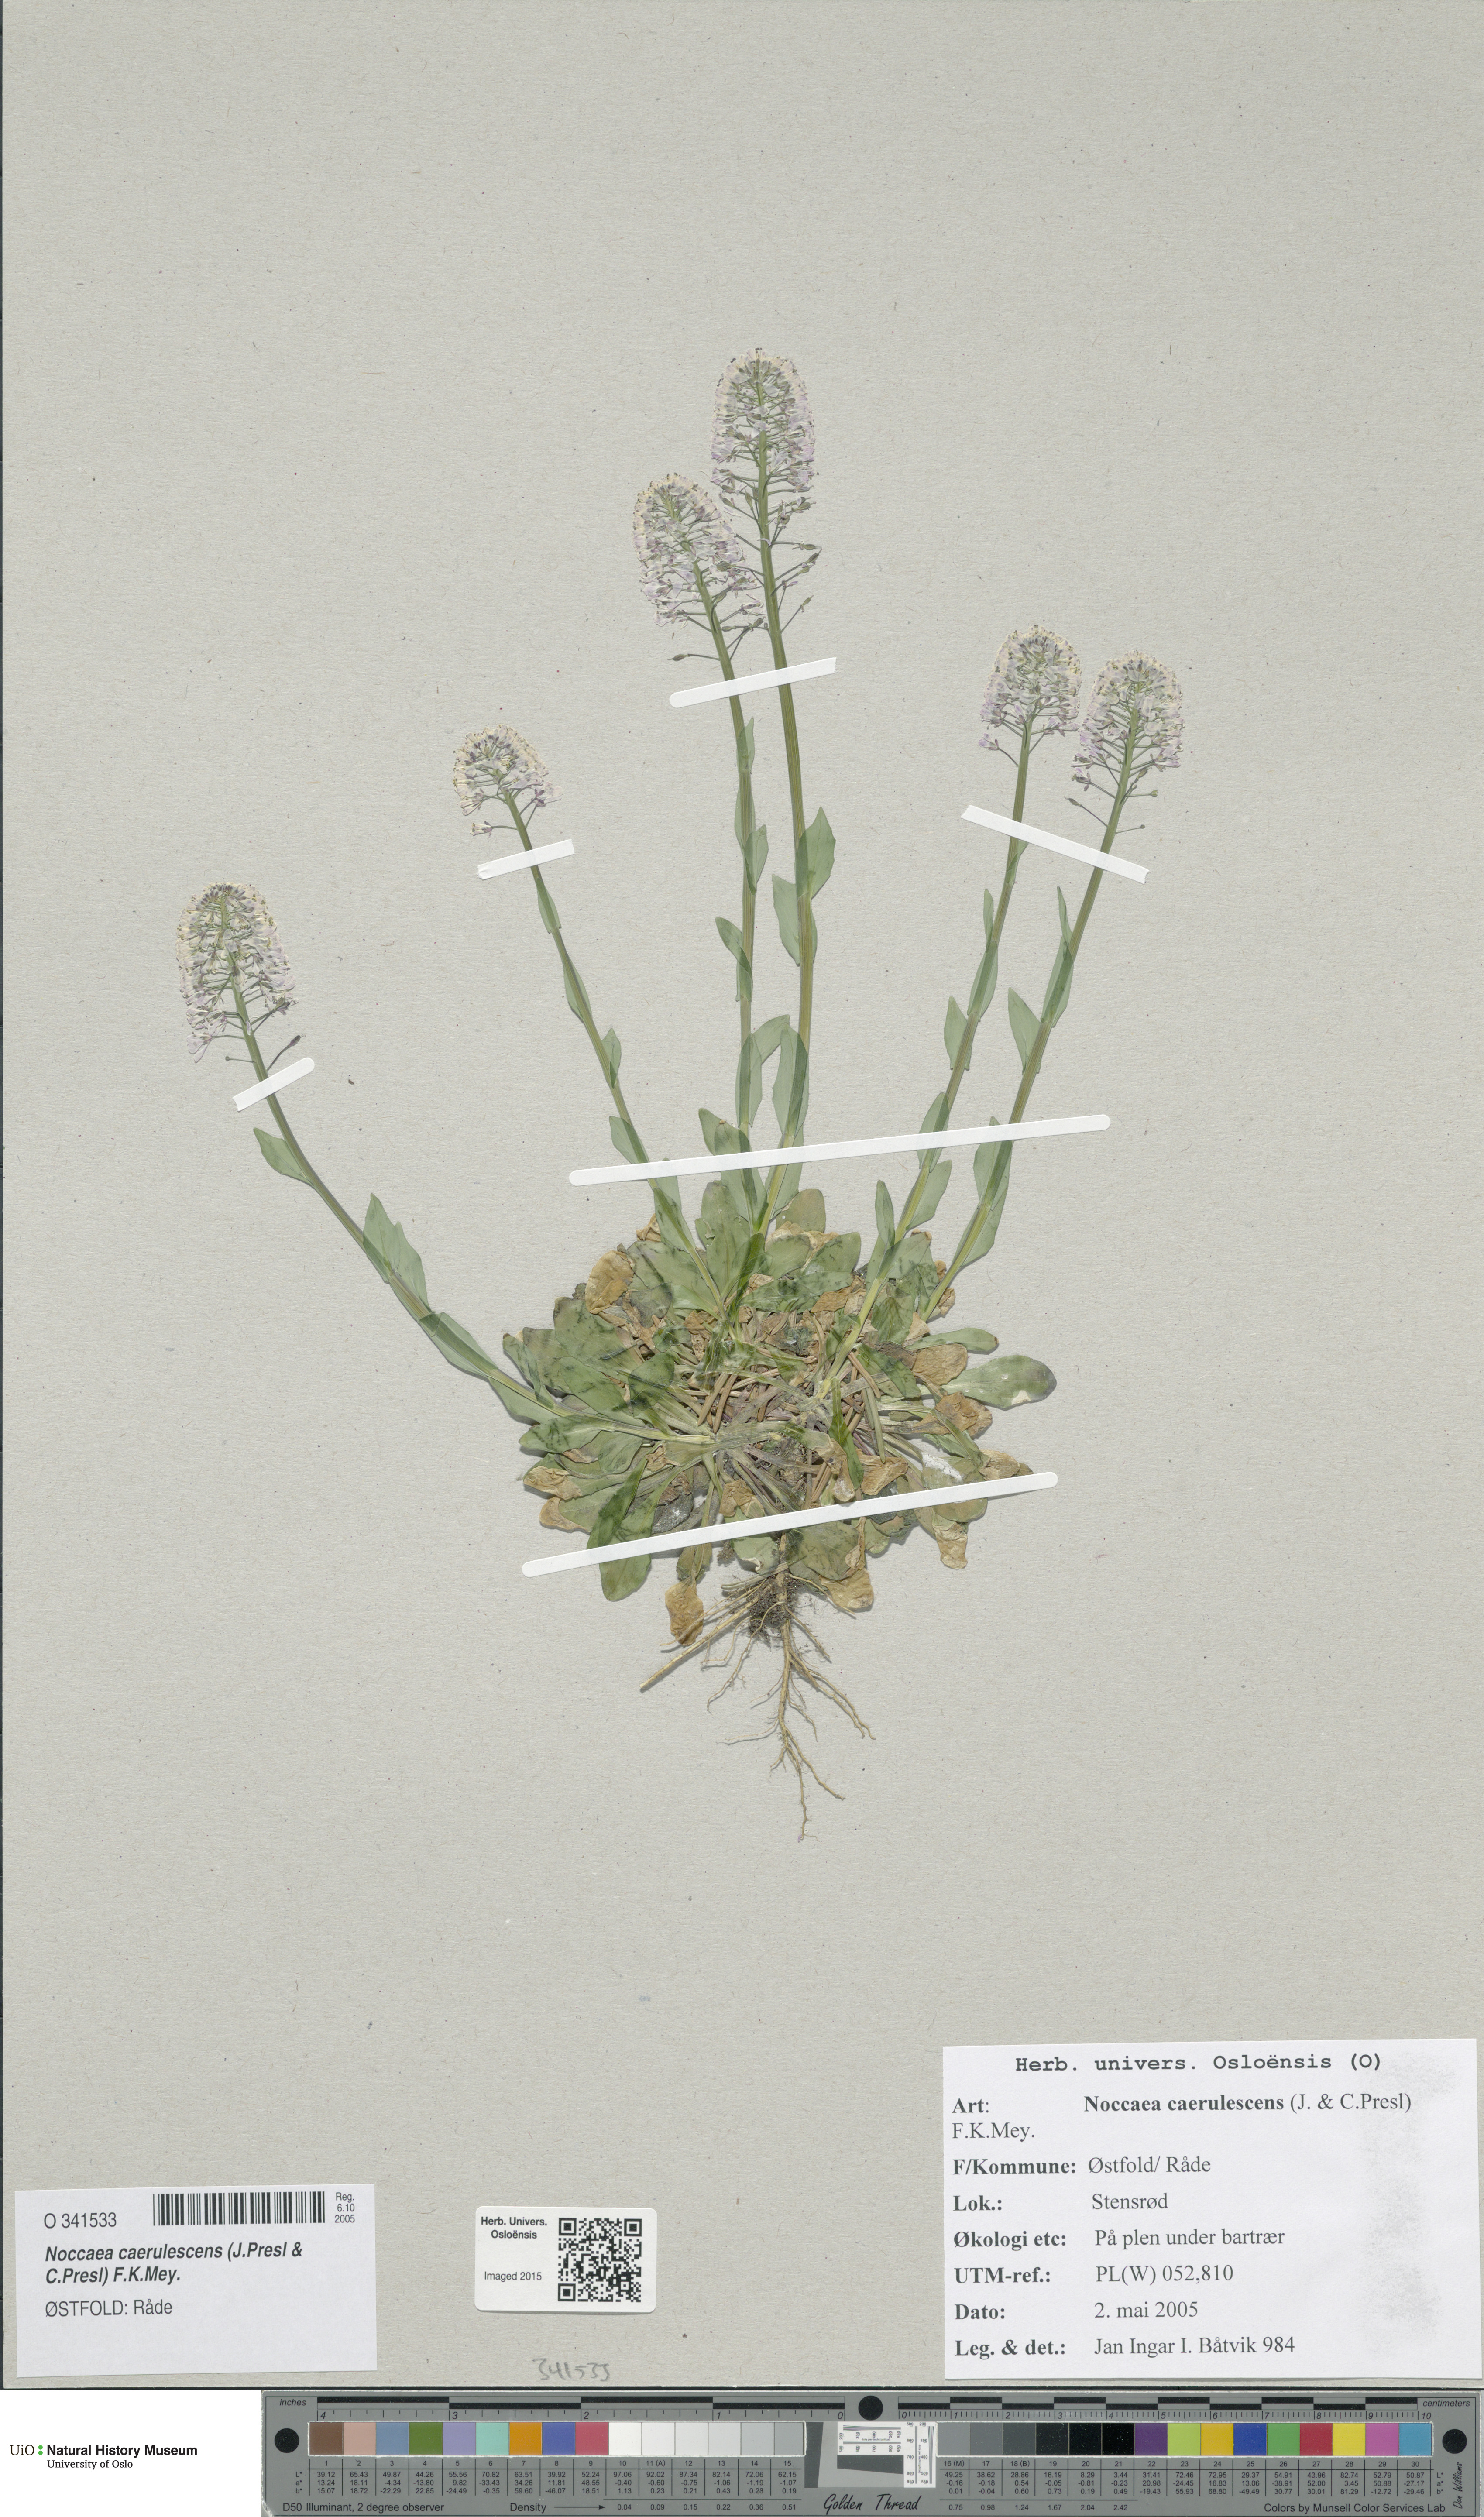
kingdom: Plantae
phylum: Tracheophyta
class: Magnoliopsida
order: Brassicales
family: Brassicaceae
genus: Noccaea
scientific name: Noccaea caerulescens
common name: Alpine pennycress
